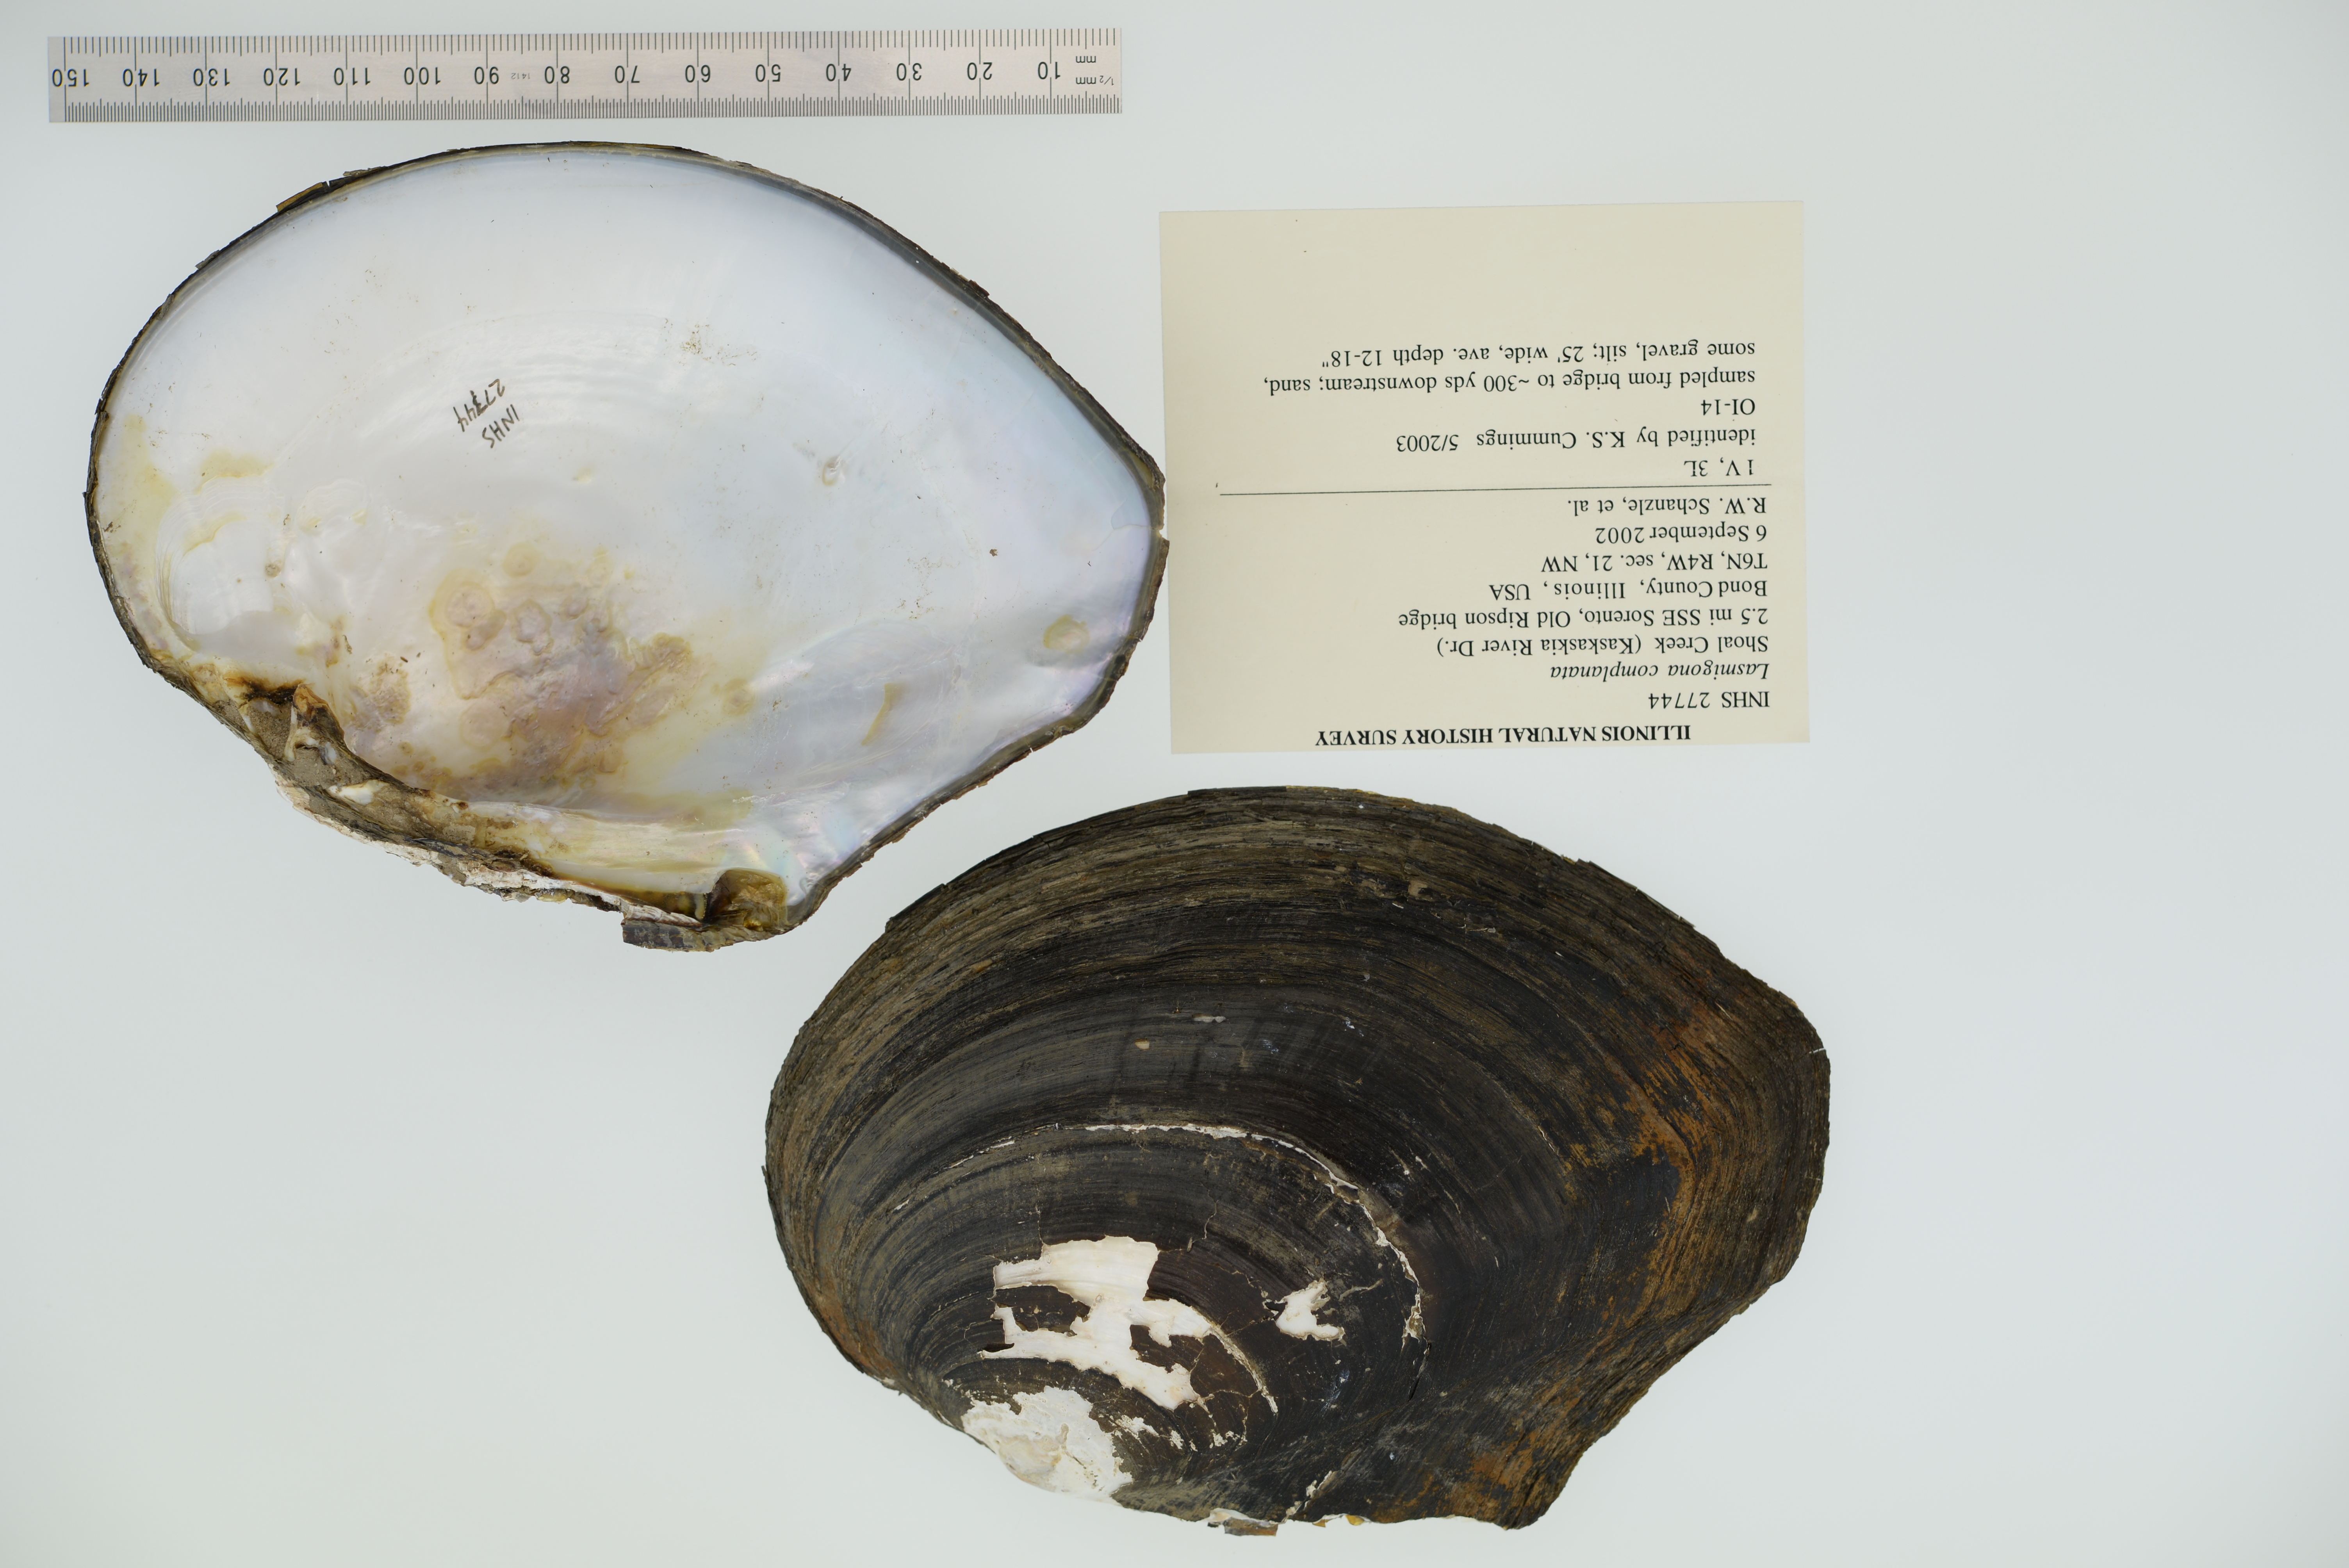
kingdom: Animalia
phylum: Mollusca
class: Bivalvia
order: Unionida
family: Unionidae
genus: Lasmigona
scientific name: Lasmigona complanata
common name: White heelsplitter
